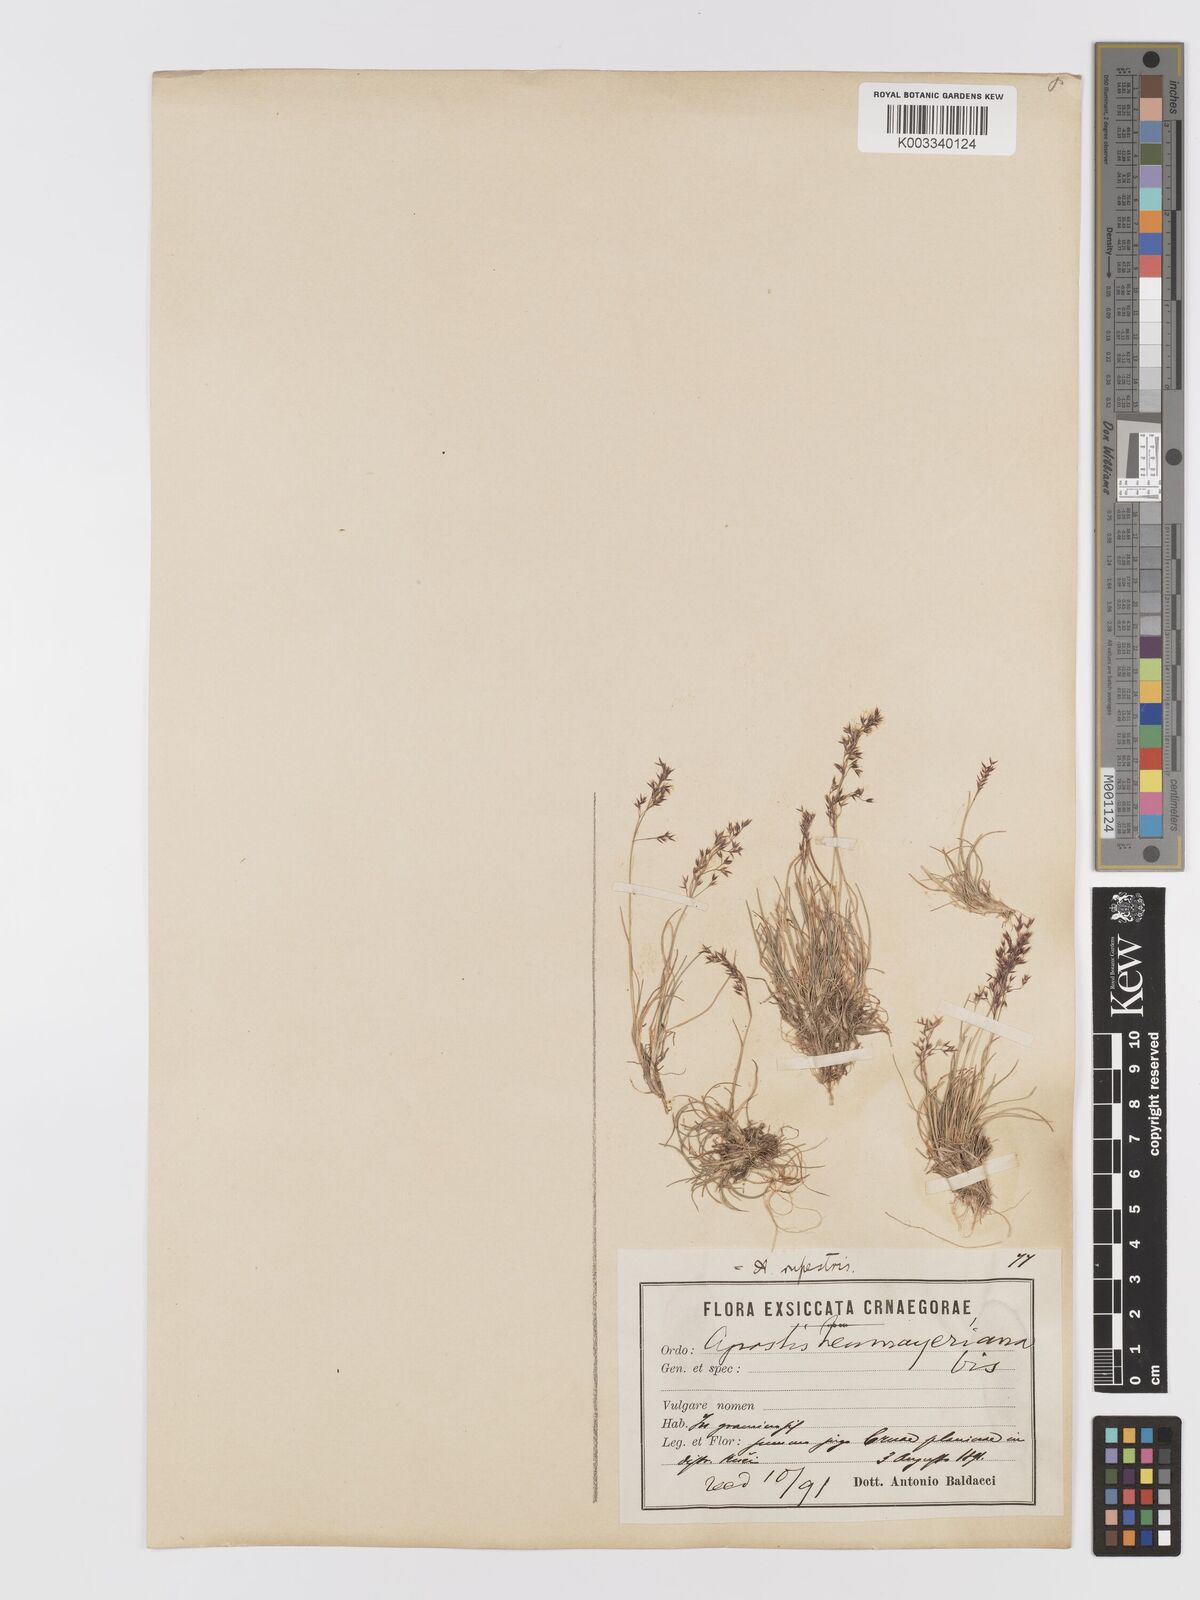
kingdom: Plantae
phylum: Tracheophyta
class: Liliopsida
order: Poales
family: Poaceae
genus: Agrostis
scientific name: Agrostis rupestris
